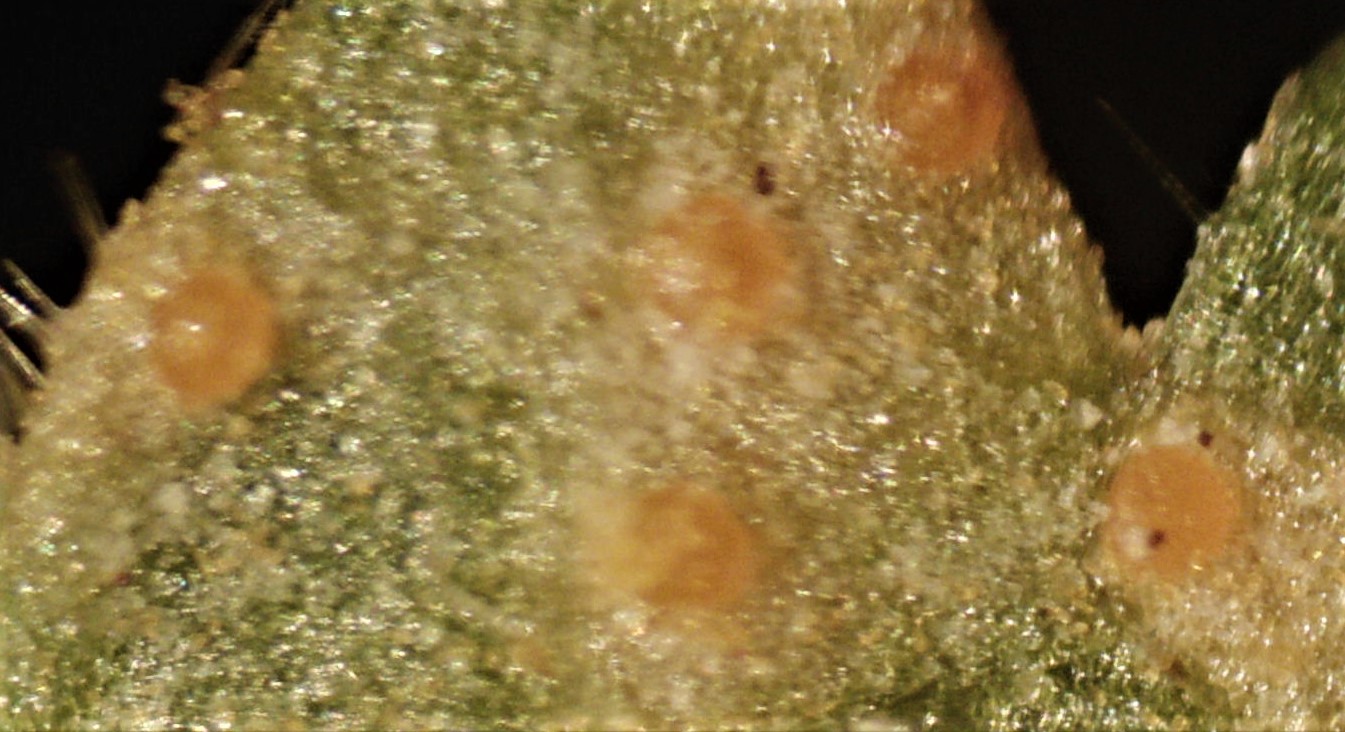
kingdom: Fungi
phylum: Basidiomycota
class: Pucciniomycetes
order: Pucciniales
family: Pucciniastraceae
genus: Melampsoridium
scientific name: Melampsoridium betulinum
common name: Birch rust
